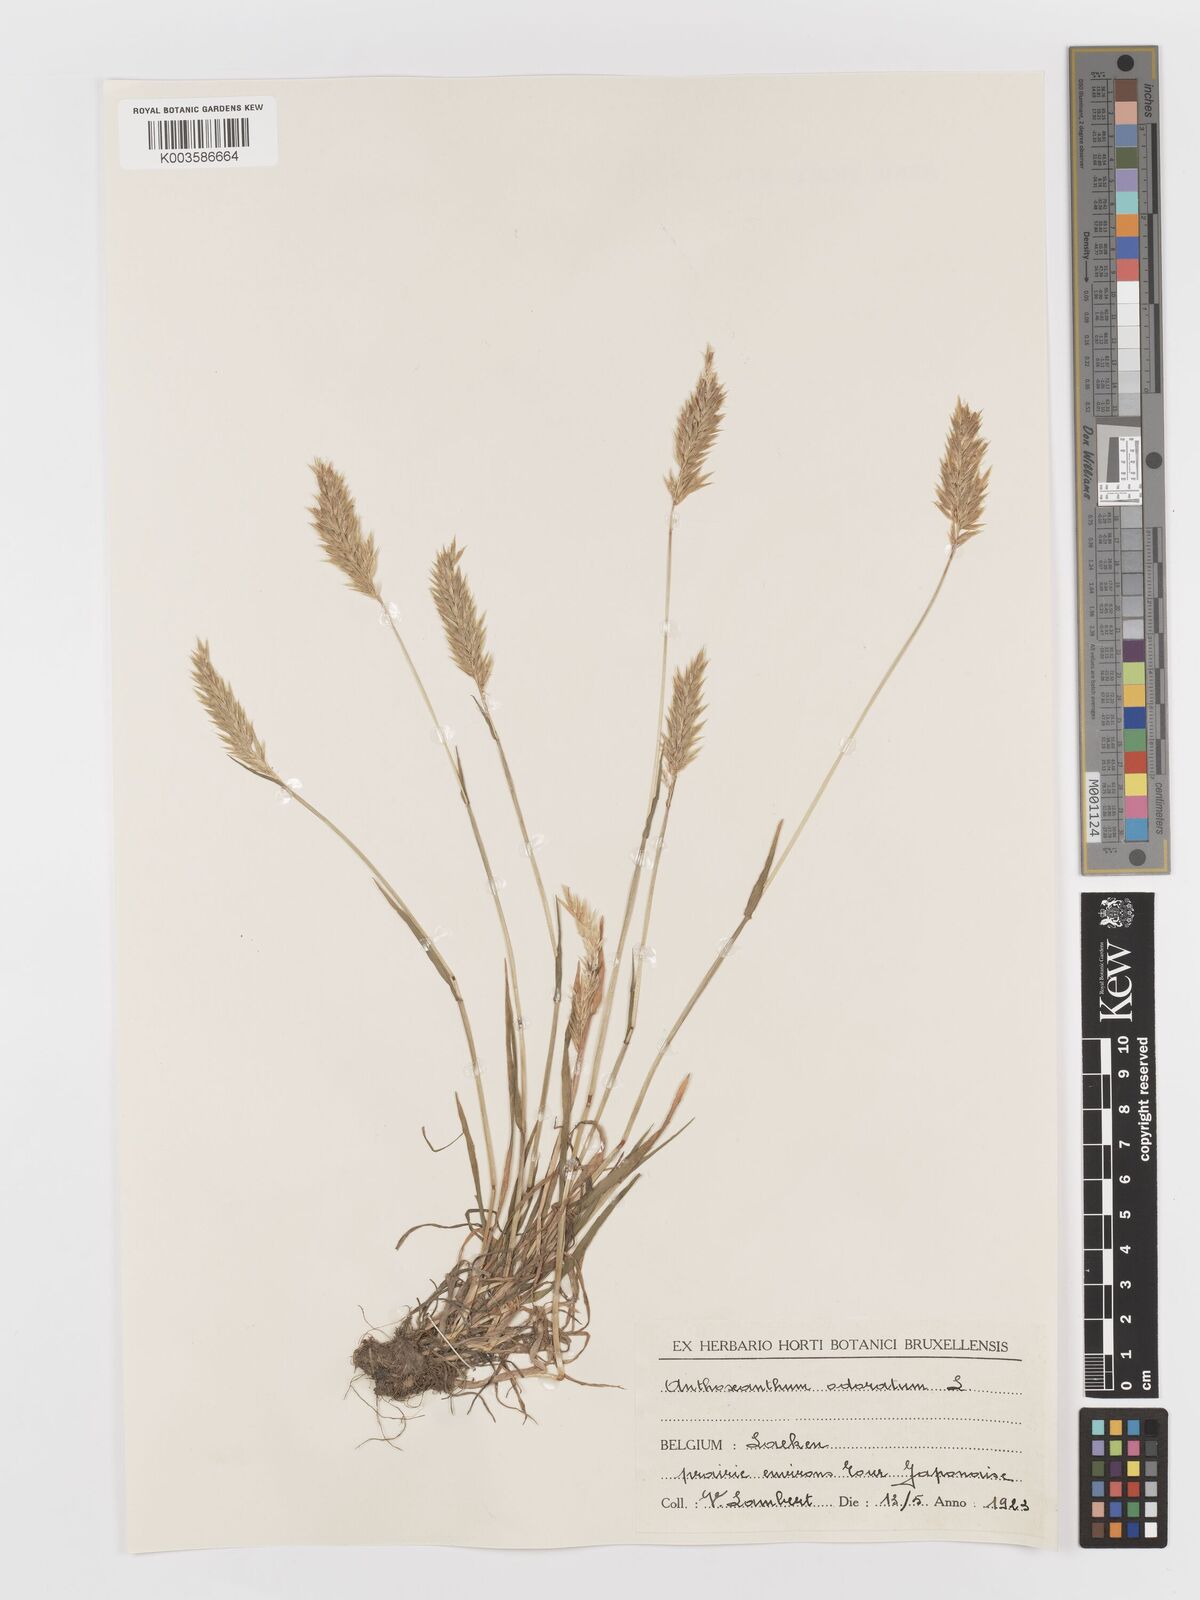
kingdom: Plantae
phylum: Tracheophyta
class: Liliopsida
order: Poales
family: Poaceae
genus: Anthoxanthum
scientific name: Anthoxanthum odoratum
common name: Sweet vernalgrass
